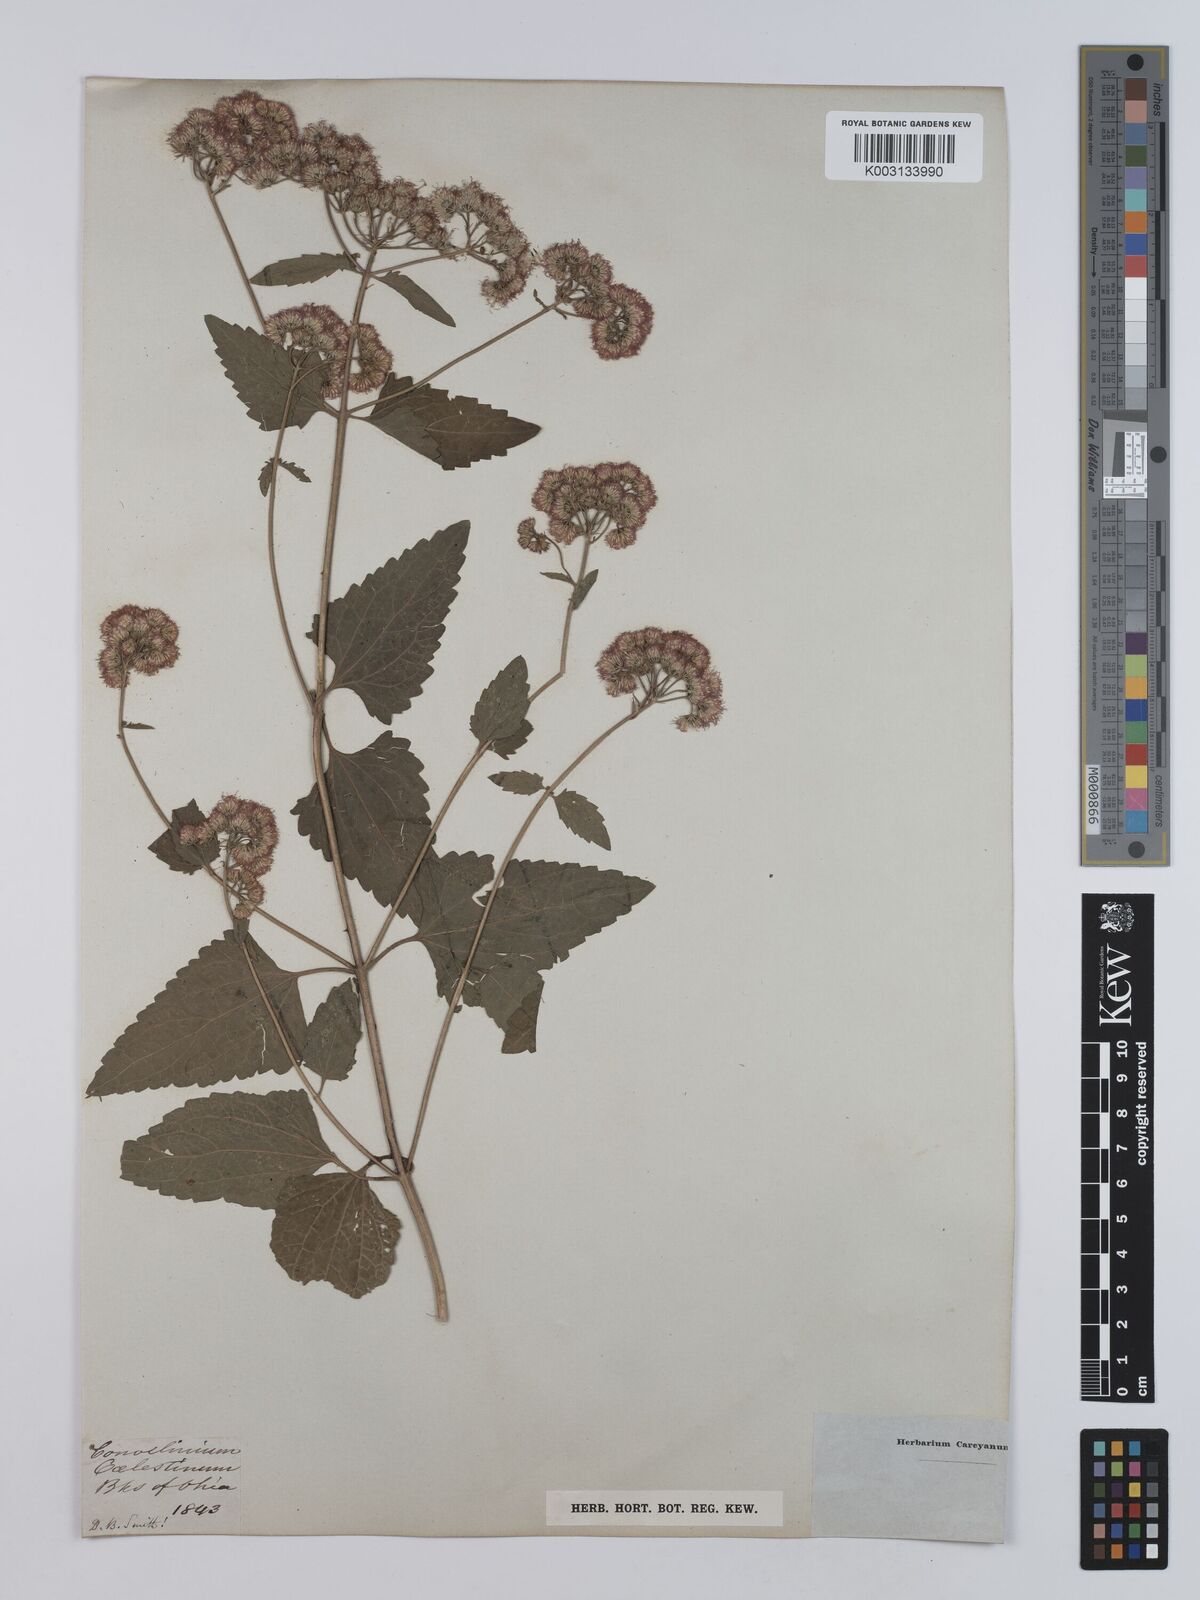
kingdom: Plantae
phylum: Tracheophyta
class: Magnoliopsida
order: Asterales
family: Asteraceae
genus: Conoclinium
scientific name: Conoclinium coelestinum
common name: Blue mistflower
